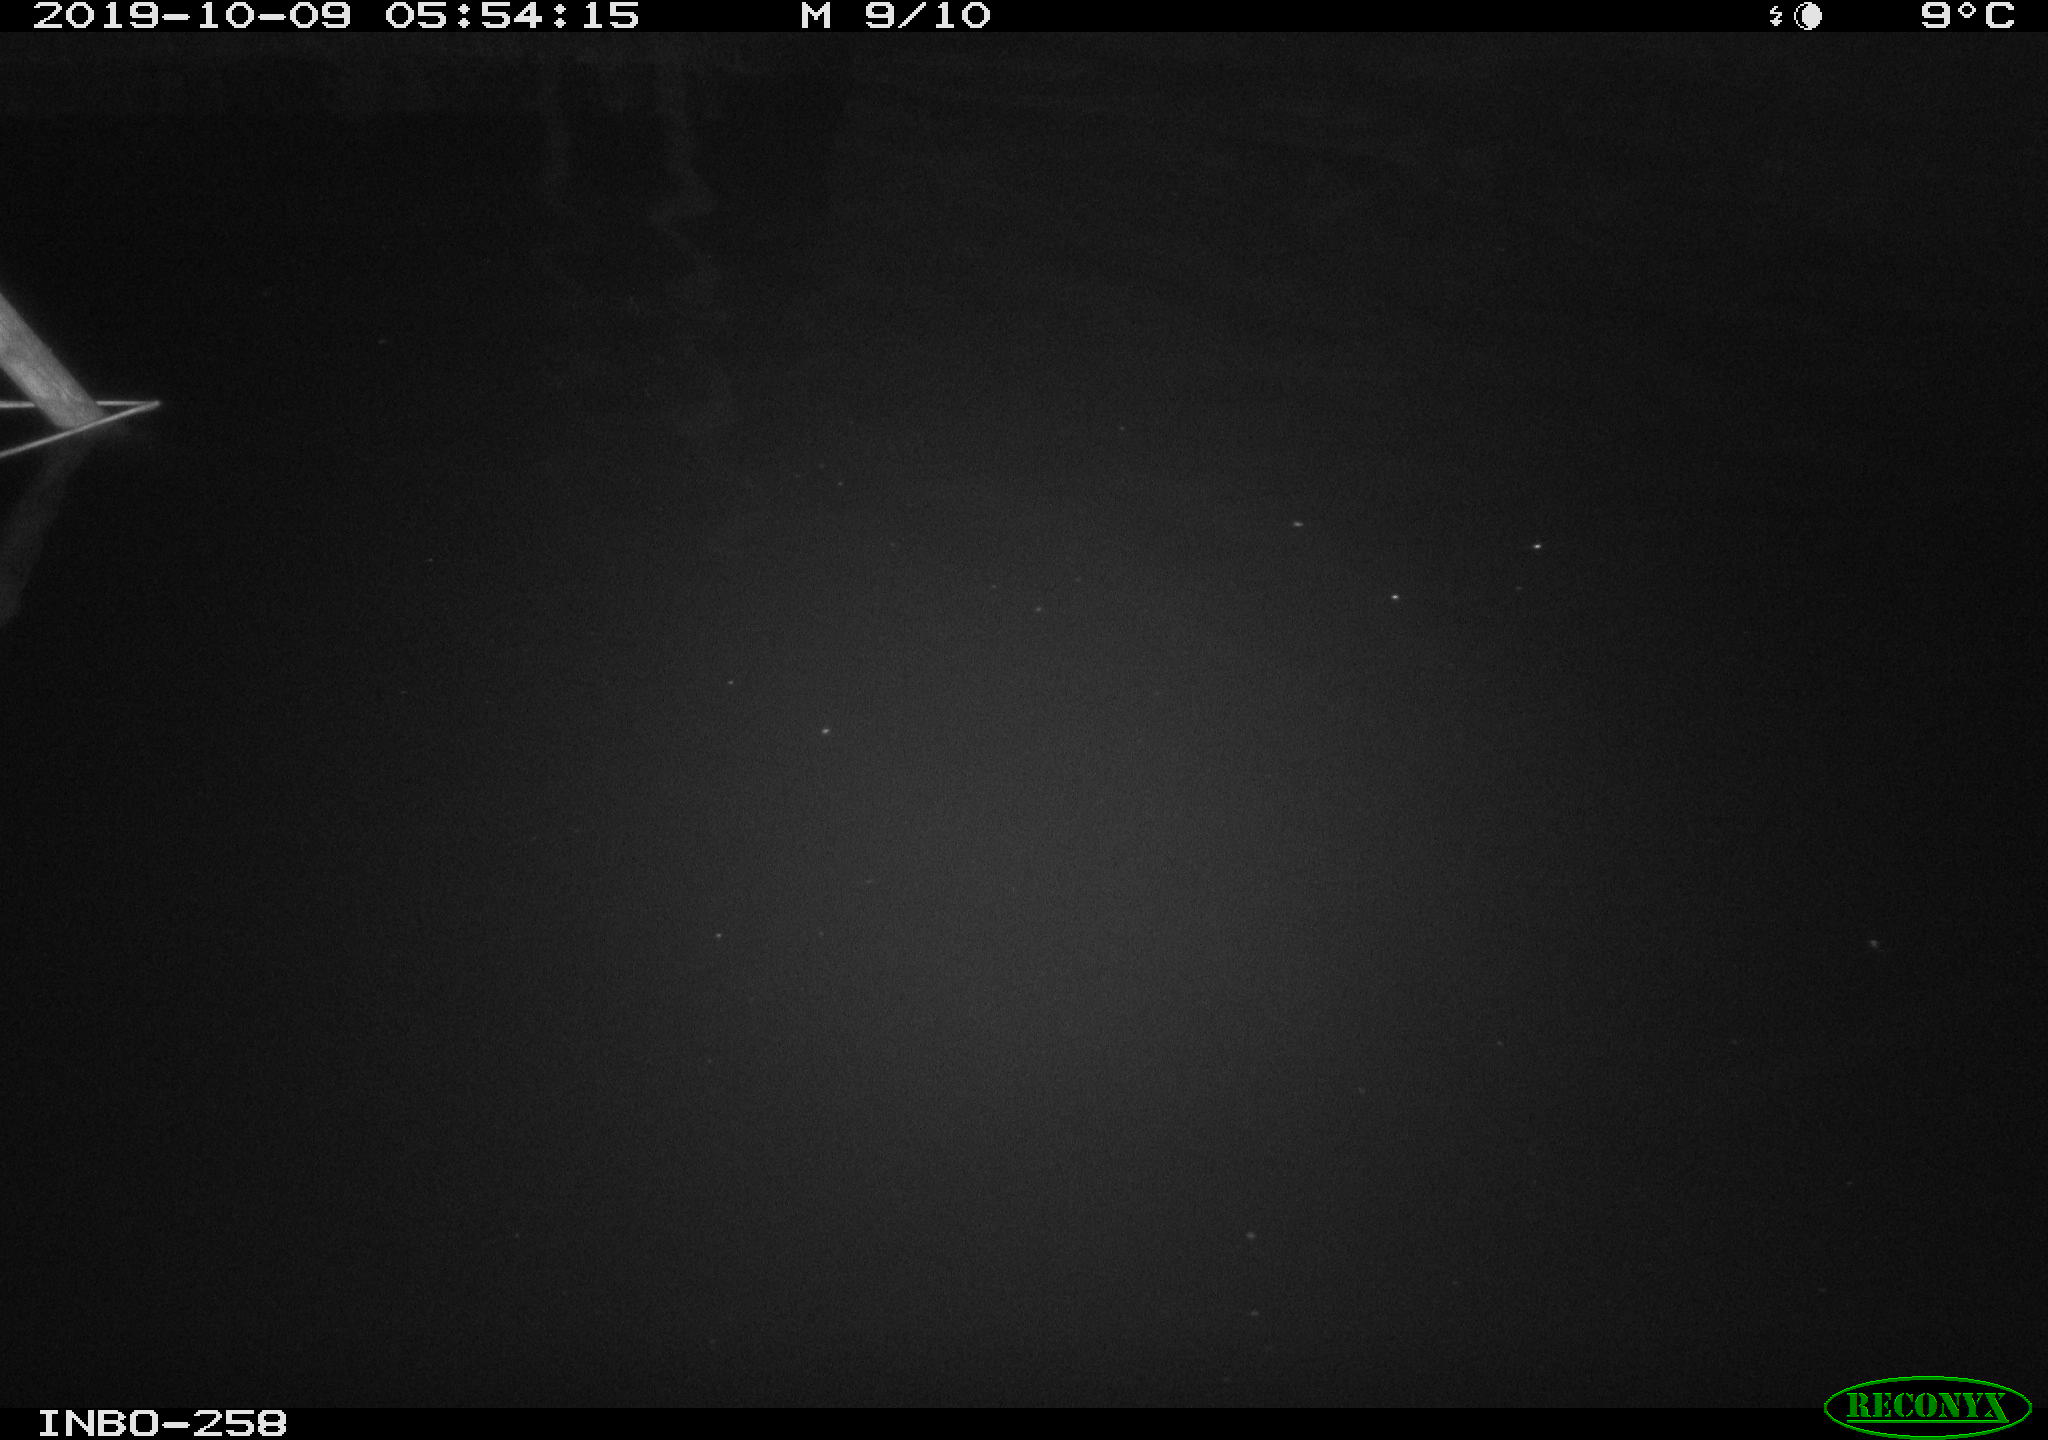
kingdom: Animalia
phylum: Chordata
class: Aves
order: Anseriformes
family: Anatidae
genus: Anas
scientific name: Anas platyrhynchos
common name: Mallard
